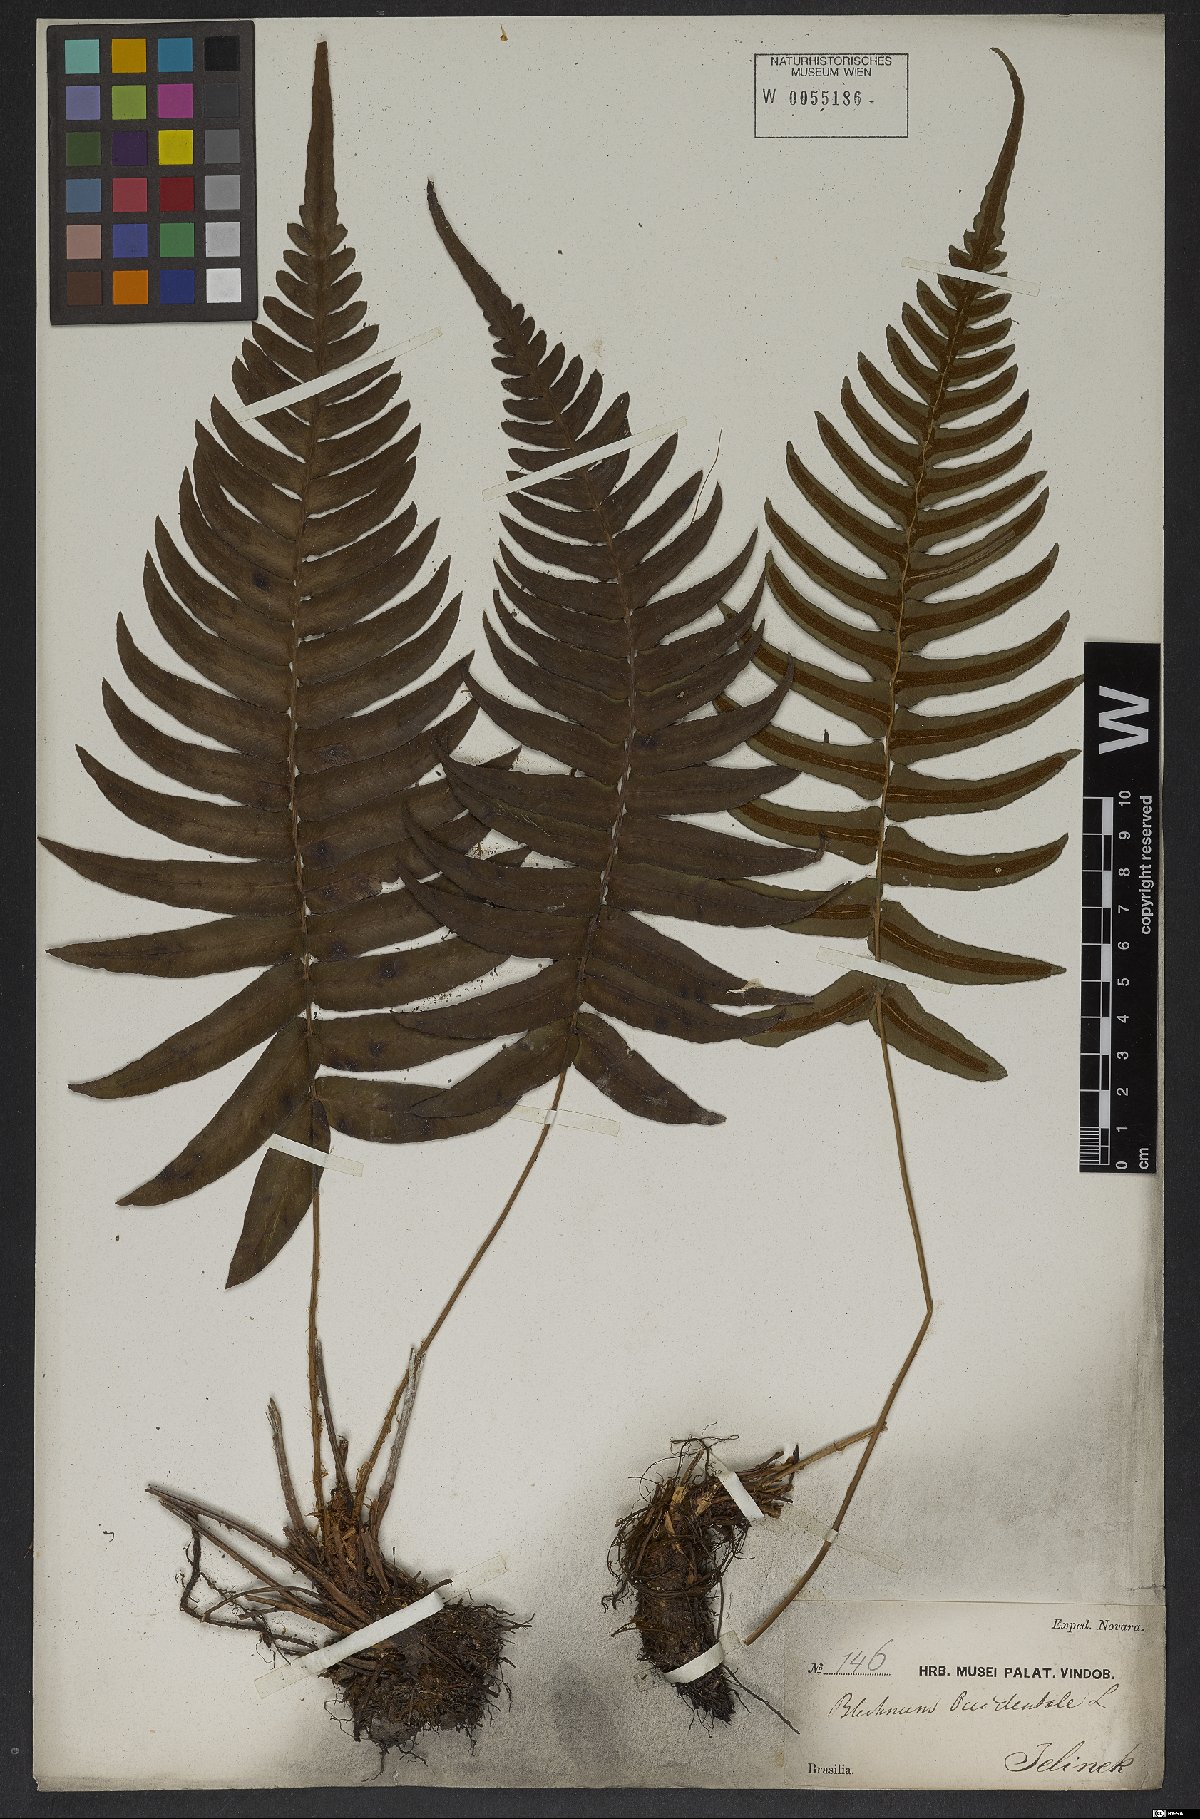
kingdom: Plantae
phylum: Tracheophyta
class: Polypodiopsida
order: Polypodiales
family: Blechnaceae
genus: Blechnum
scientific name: Blechnum occidentale
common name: Hammock fern
